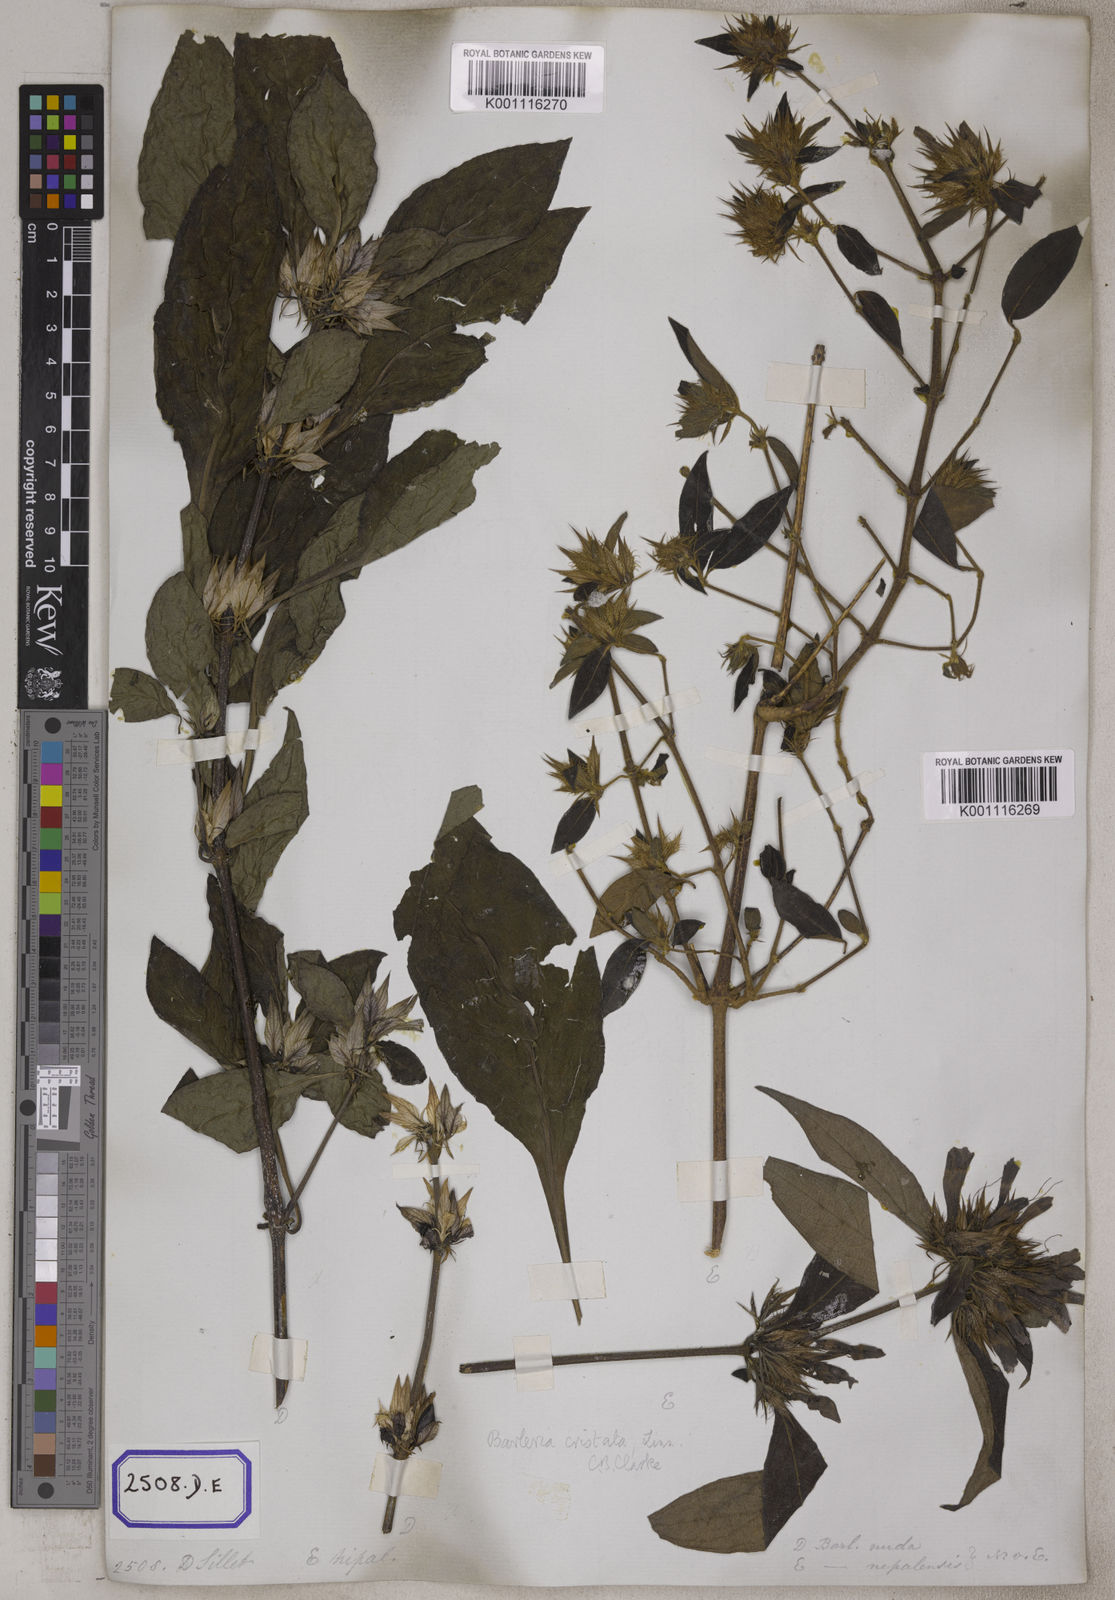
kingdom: Plantae
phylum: Tracheophyta
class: Magnoliopsida
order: Lamiales
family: Acanthaceae
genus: Barleria
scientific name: Barleria cristata
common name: Crested philippine violet
